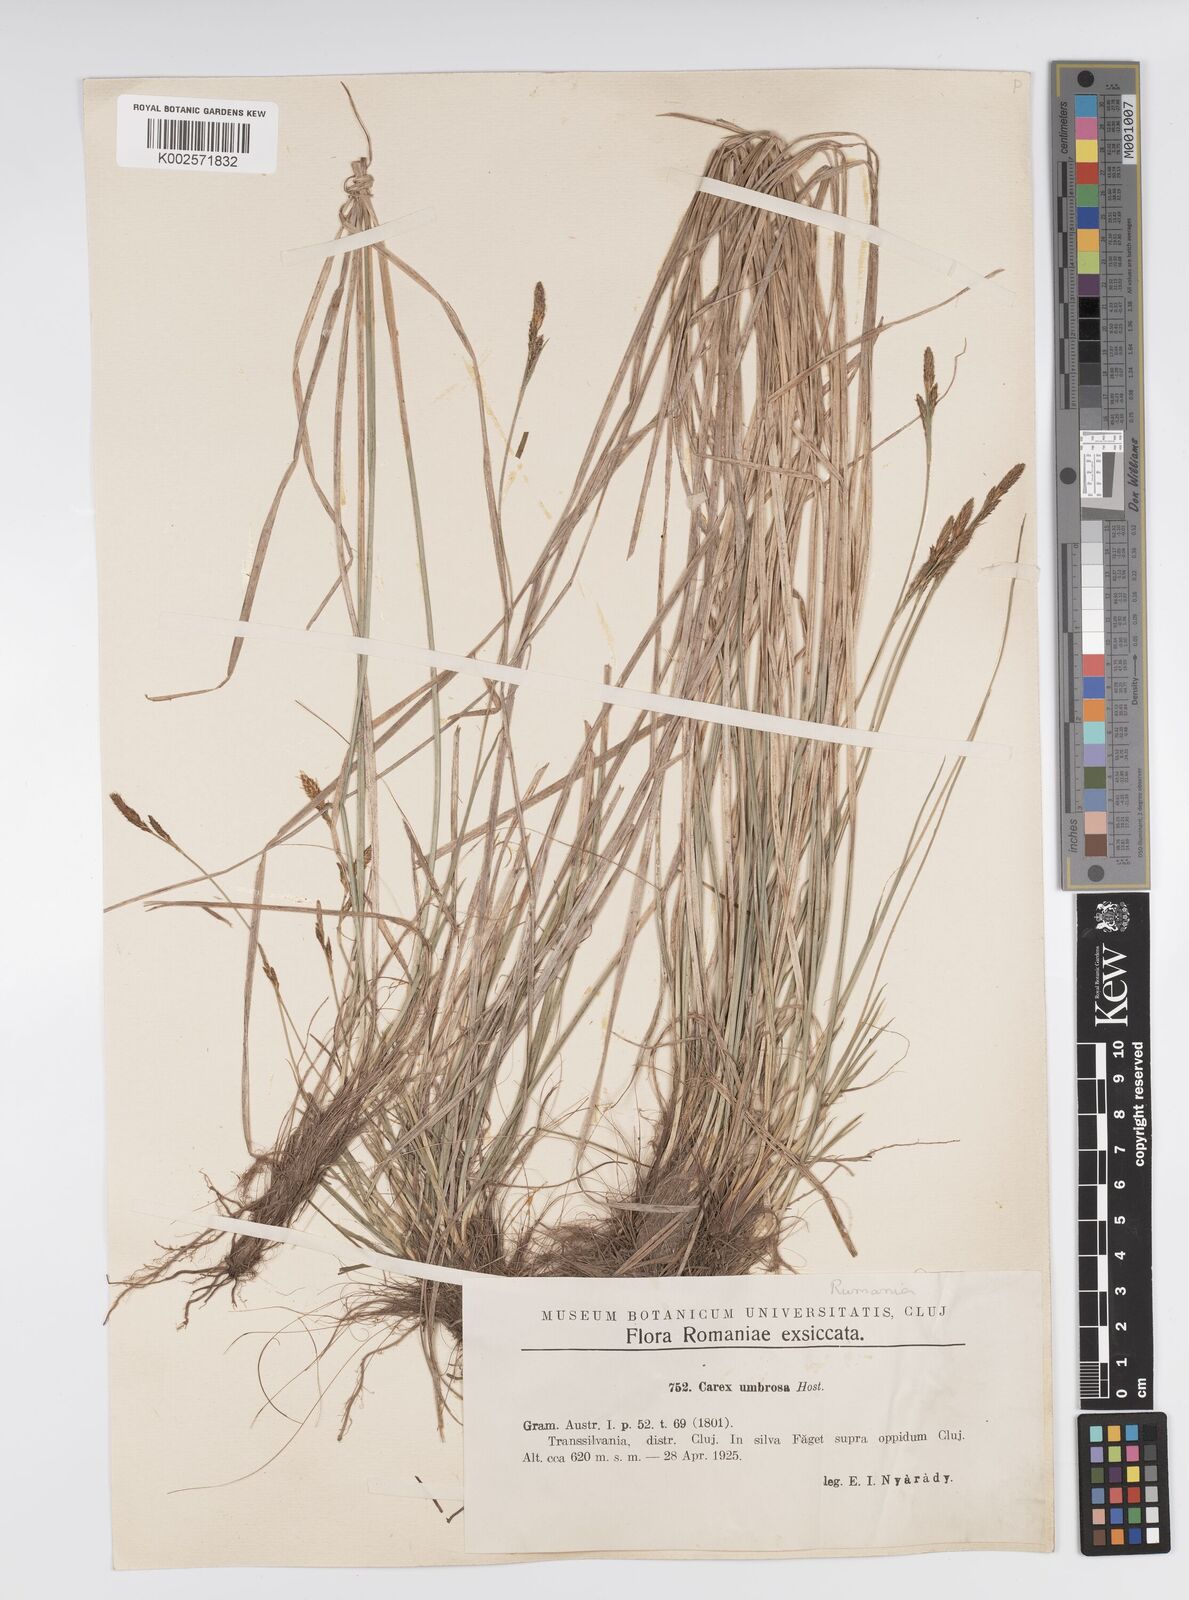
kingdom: Plantae
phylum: Tracheophyta
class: Liliopsida
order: Poales
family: Cyperaceae
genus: Carex
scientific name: Carex umbrosa
